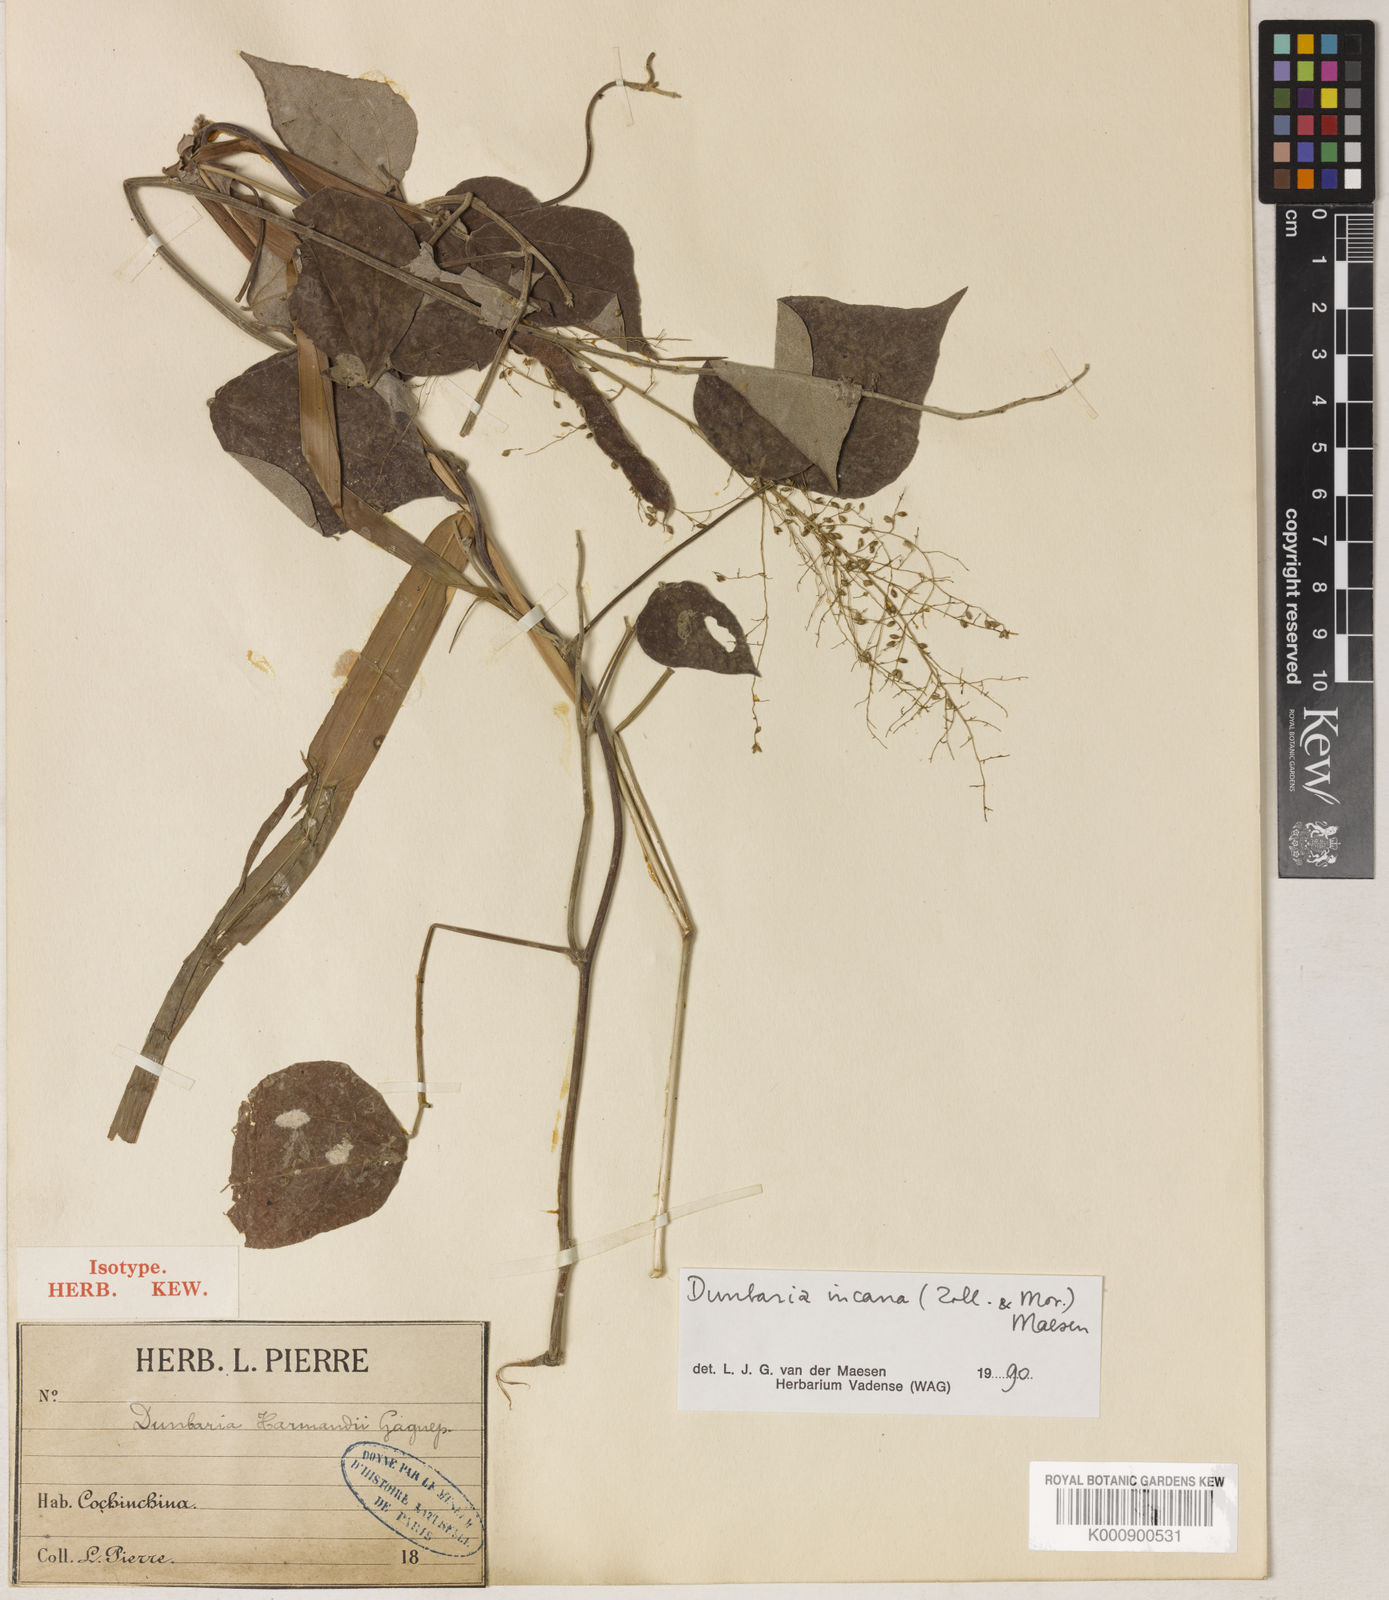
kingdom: Plantae
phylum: Tracheophyta
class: Magnoliopsida
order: Fabales
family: Fabaceae
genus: Dunbaria
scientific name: Dunbaria incana
